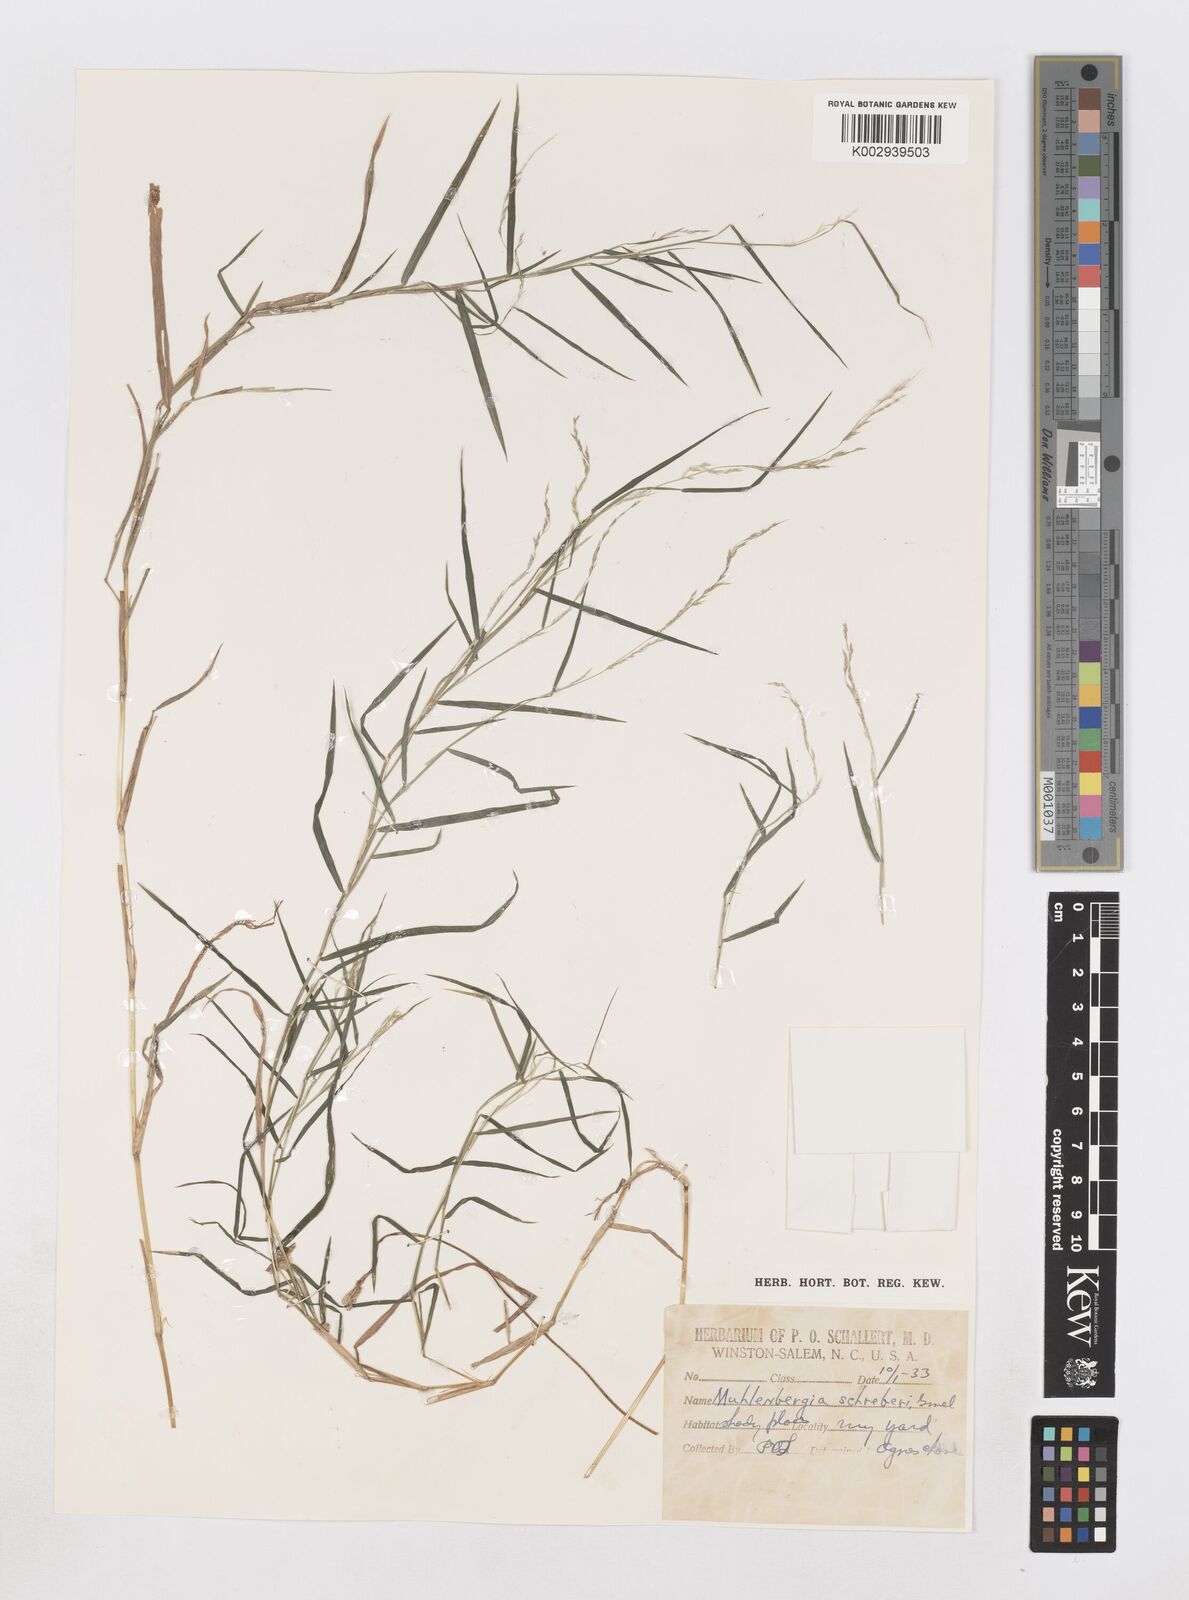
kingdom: Plantae
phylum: Tracheophyta
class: Liliopsida
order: Poales
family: Poaceae
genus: Muhlenbergia
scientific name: Muhlenbergia schreberi
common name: Nimblewill
